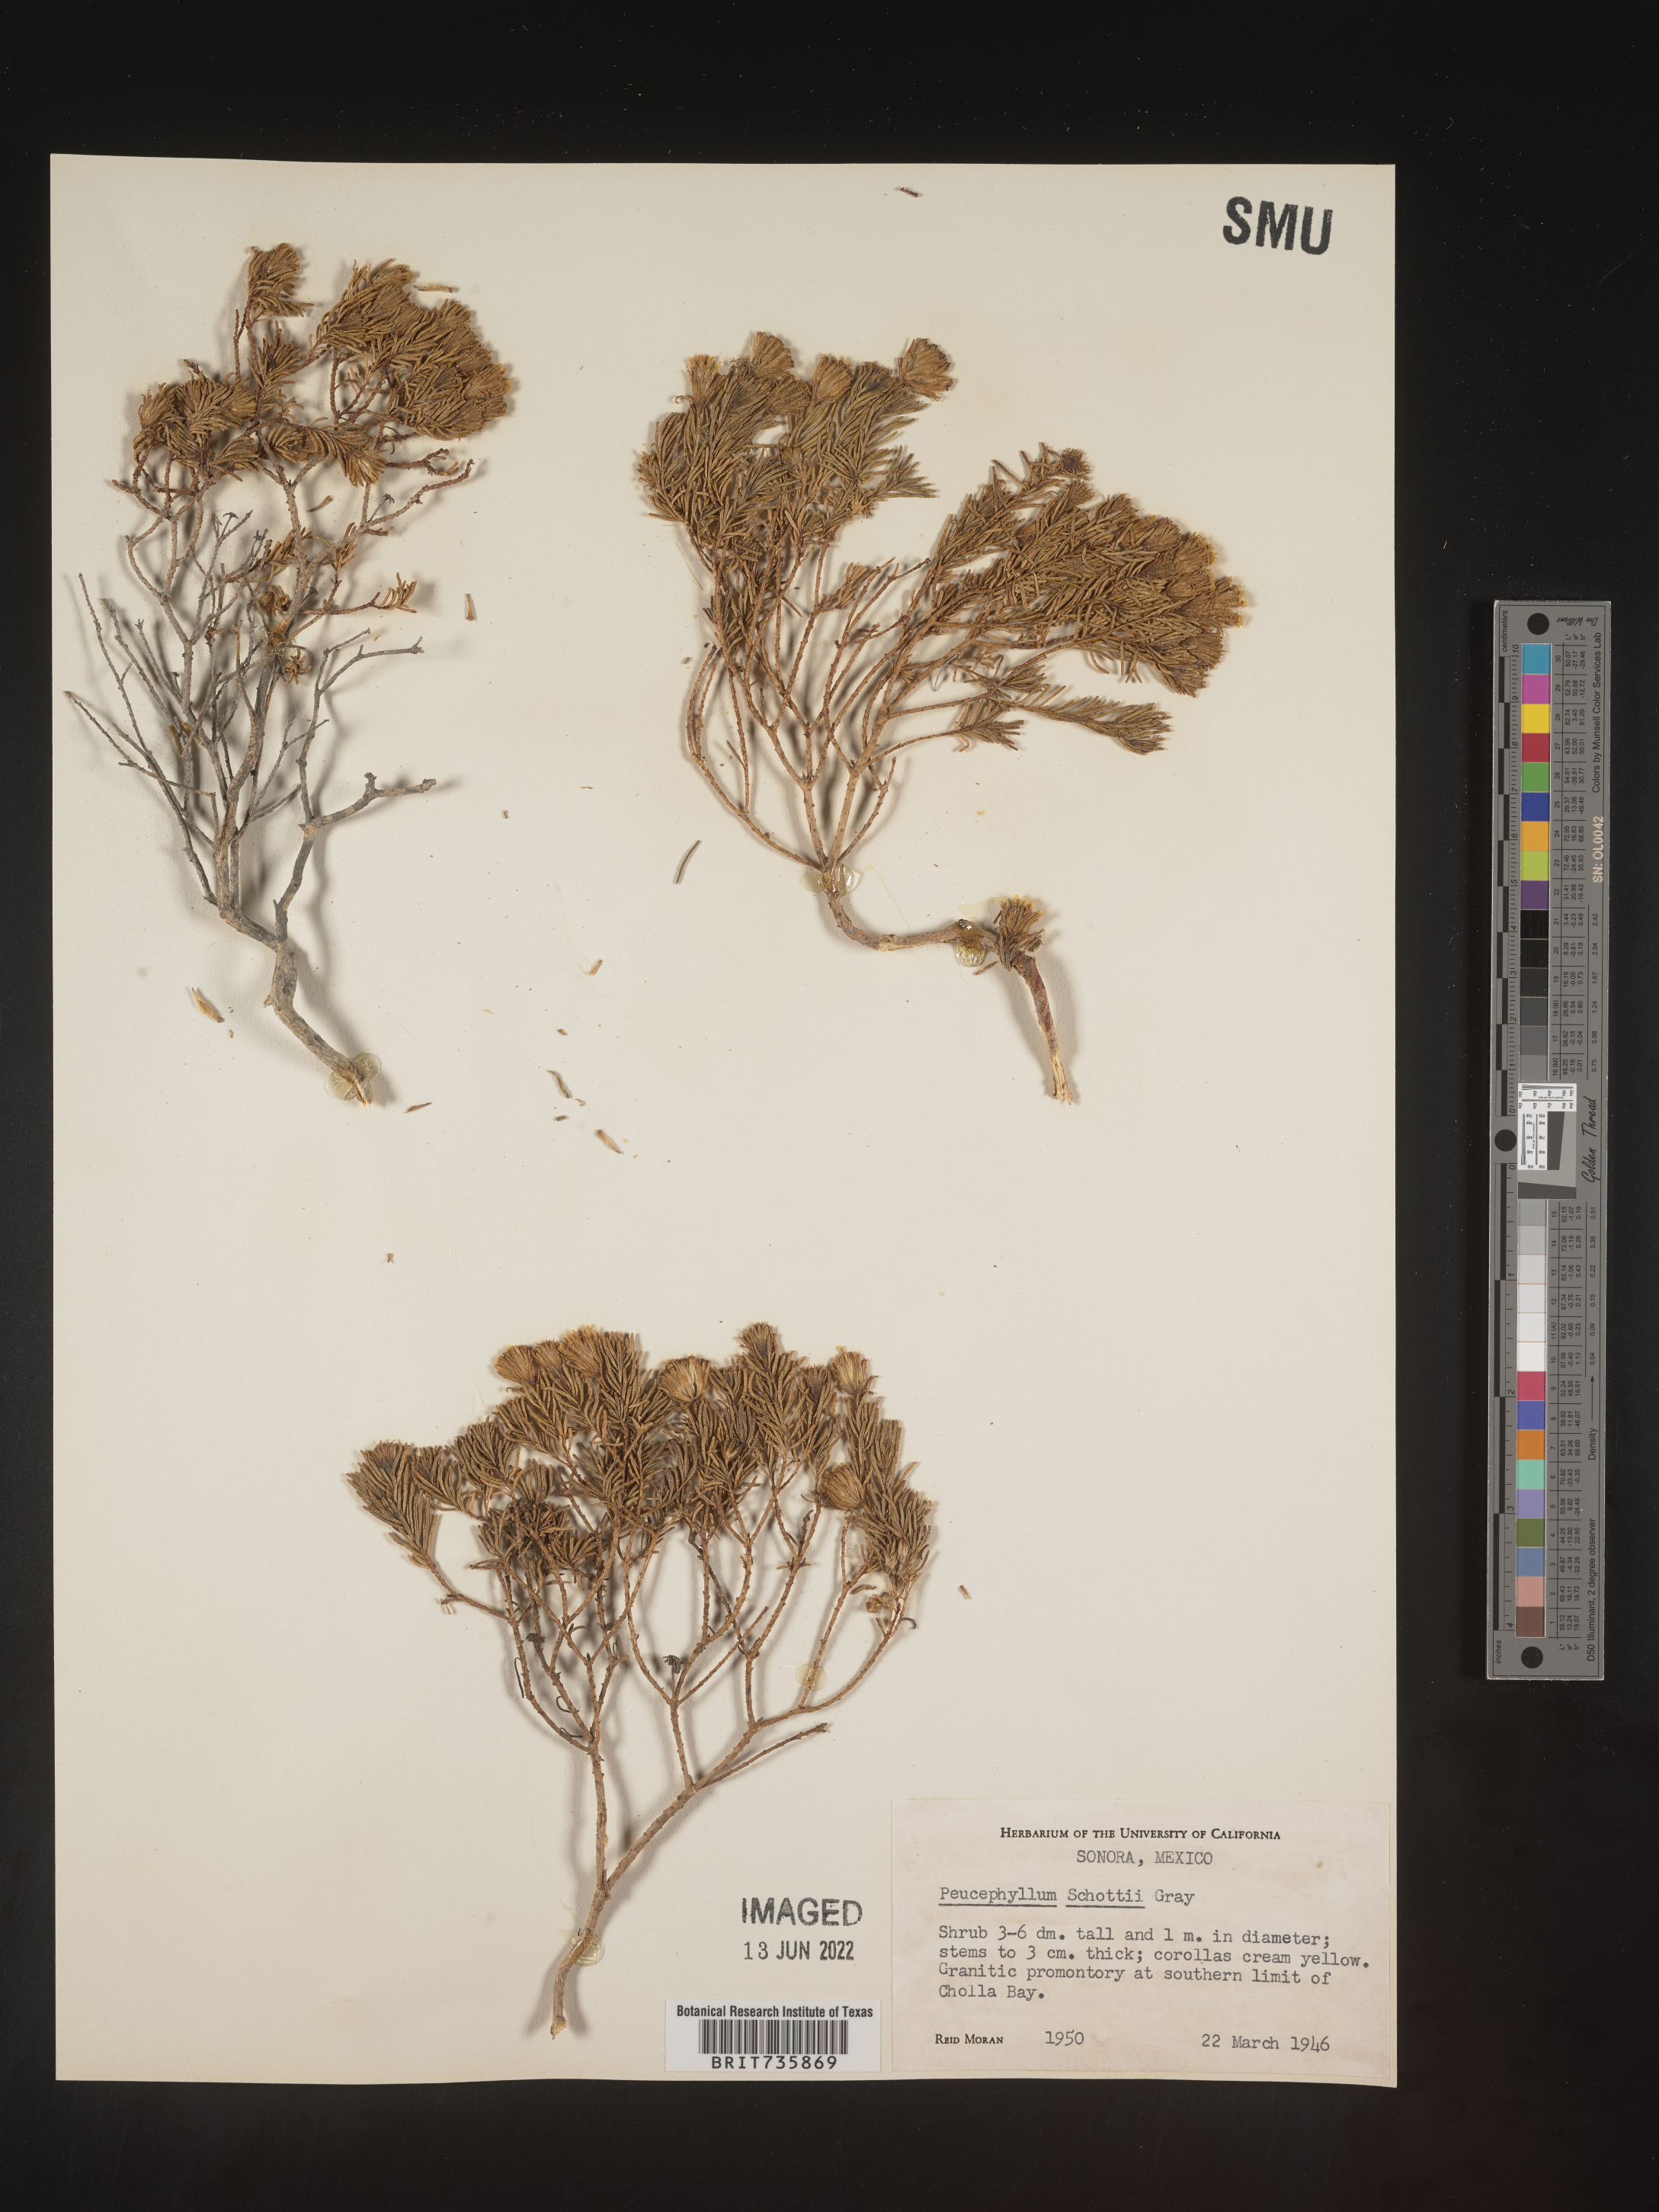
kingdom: Plantae
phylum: Tracheophyta
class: Magnoliopsida
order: Asterales
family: Asteraceae
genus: Peucephyllum
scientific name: Peucephyllum
